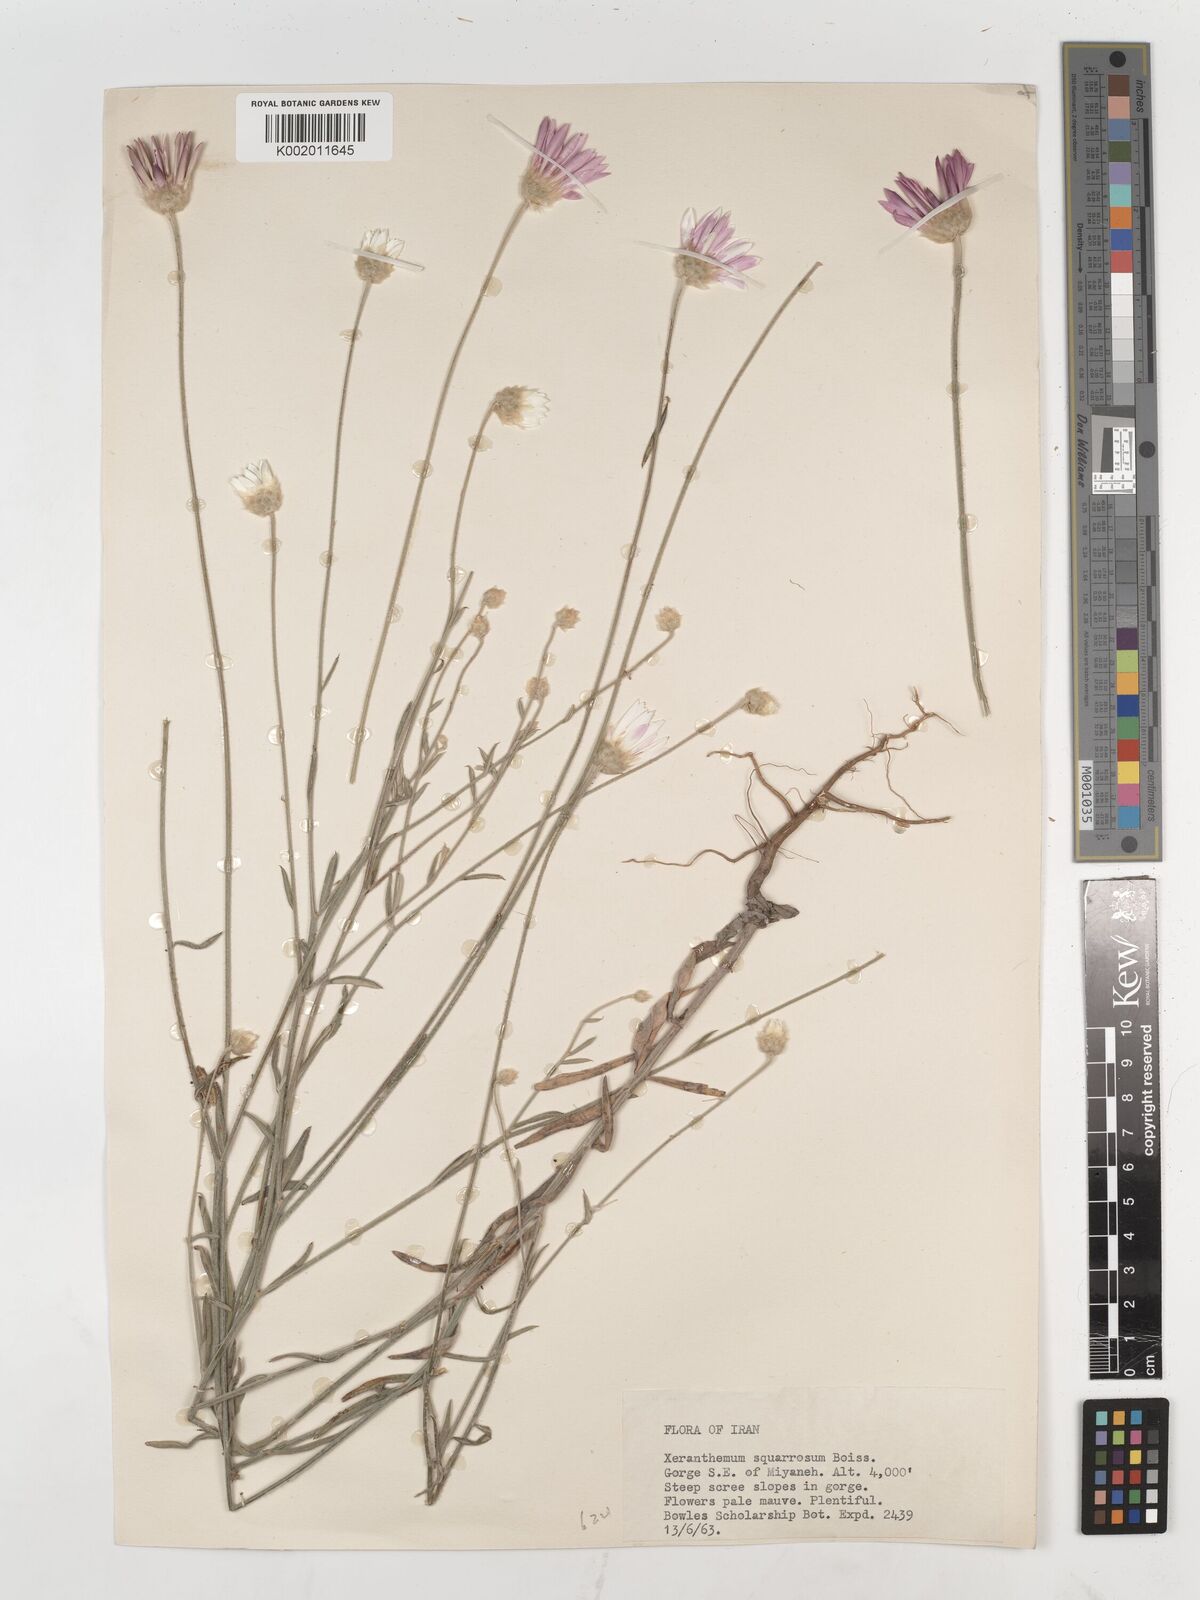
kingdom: Plantae
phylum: Tracheophyta
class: Magnoliopsida
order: Asterales
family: Asteraceae
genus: Xeranthemum
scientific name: Xeranthemum squarrosum
